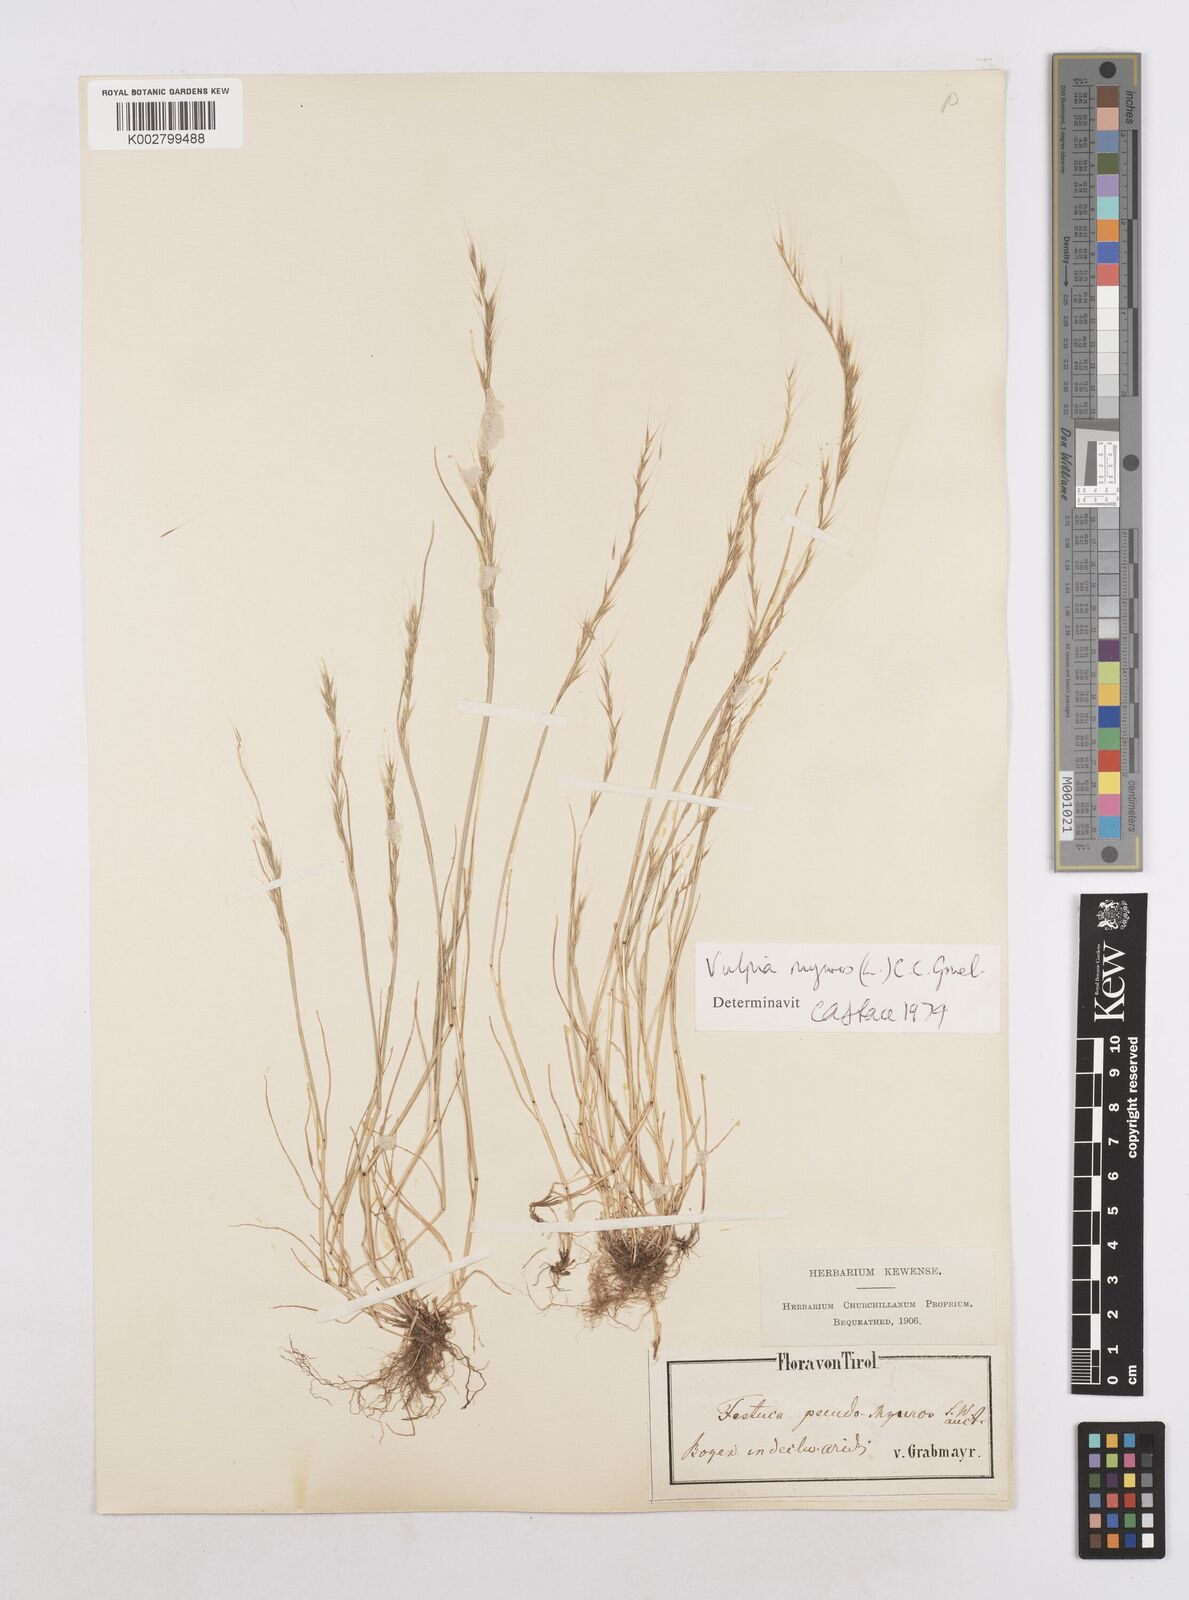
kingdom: Plantae
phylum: Tracheophyta
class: Liliopsida
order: Poales
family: Poaceae
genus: Festuca
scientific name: Festuca myuros
